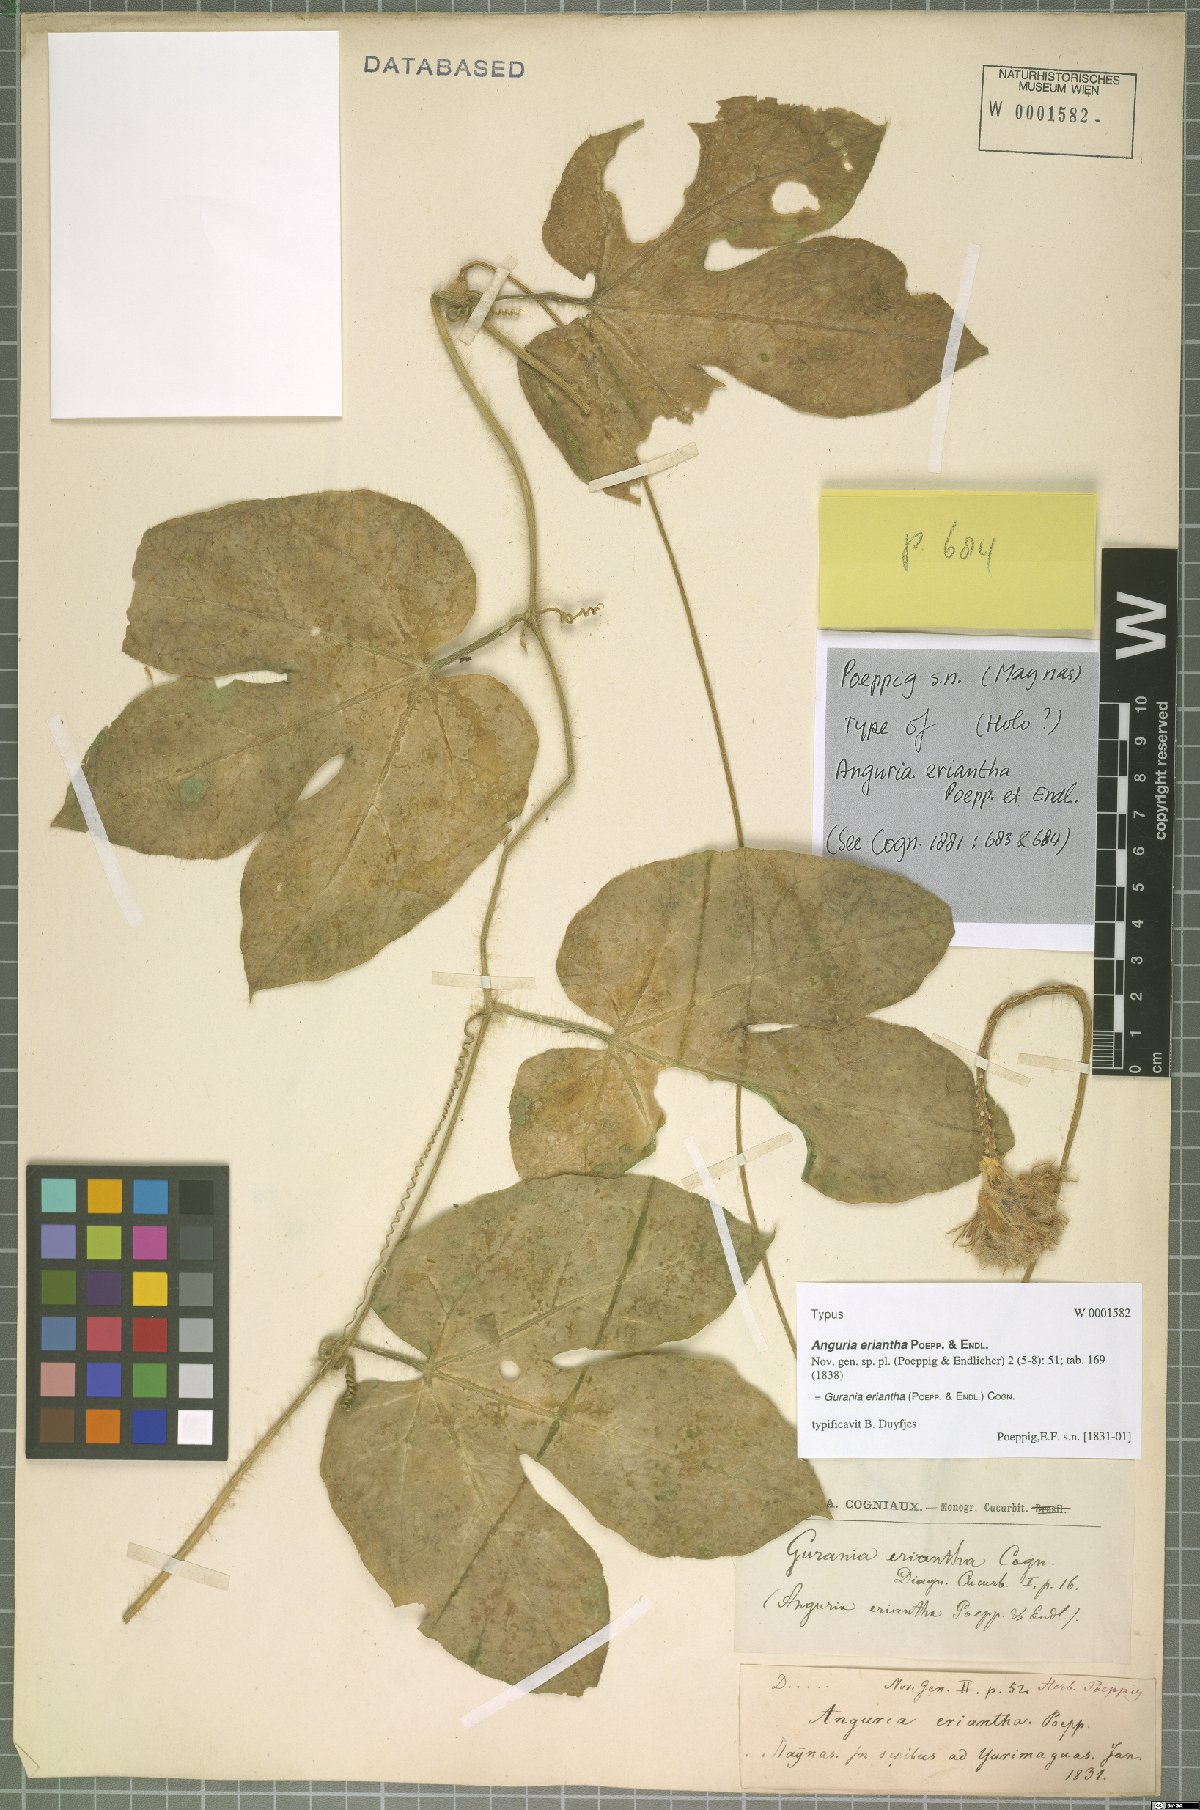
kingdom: Plantae
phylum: Tracheophyta
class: Magnoliopsida
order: Cucurbitales
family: Cucurbitaceae
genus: Gurania
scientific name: Gurania eriantha
